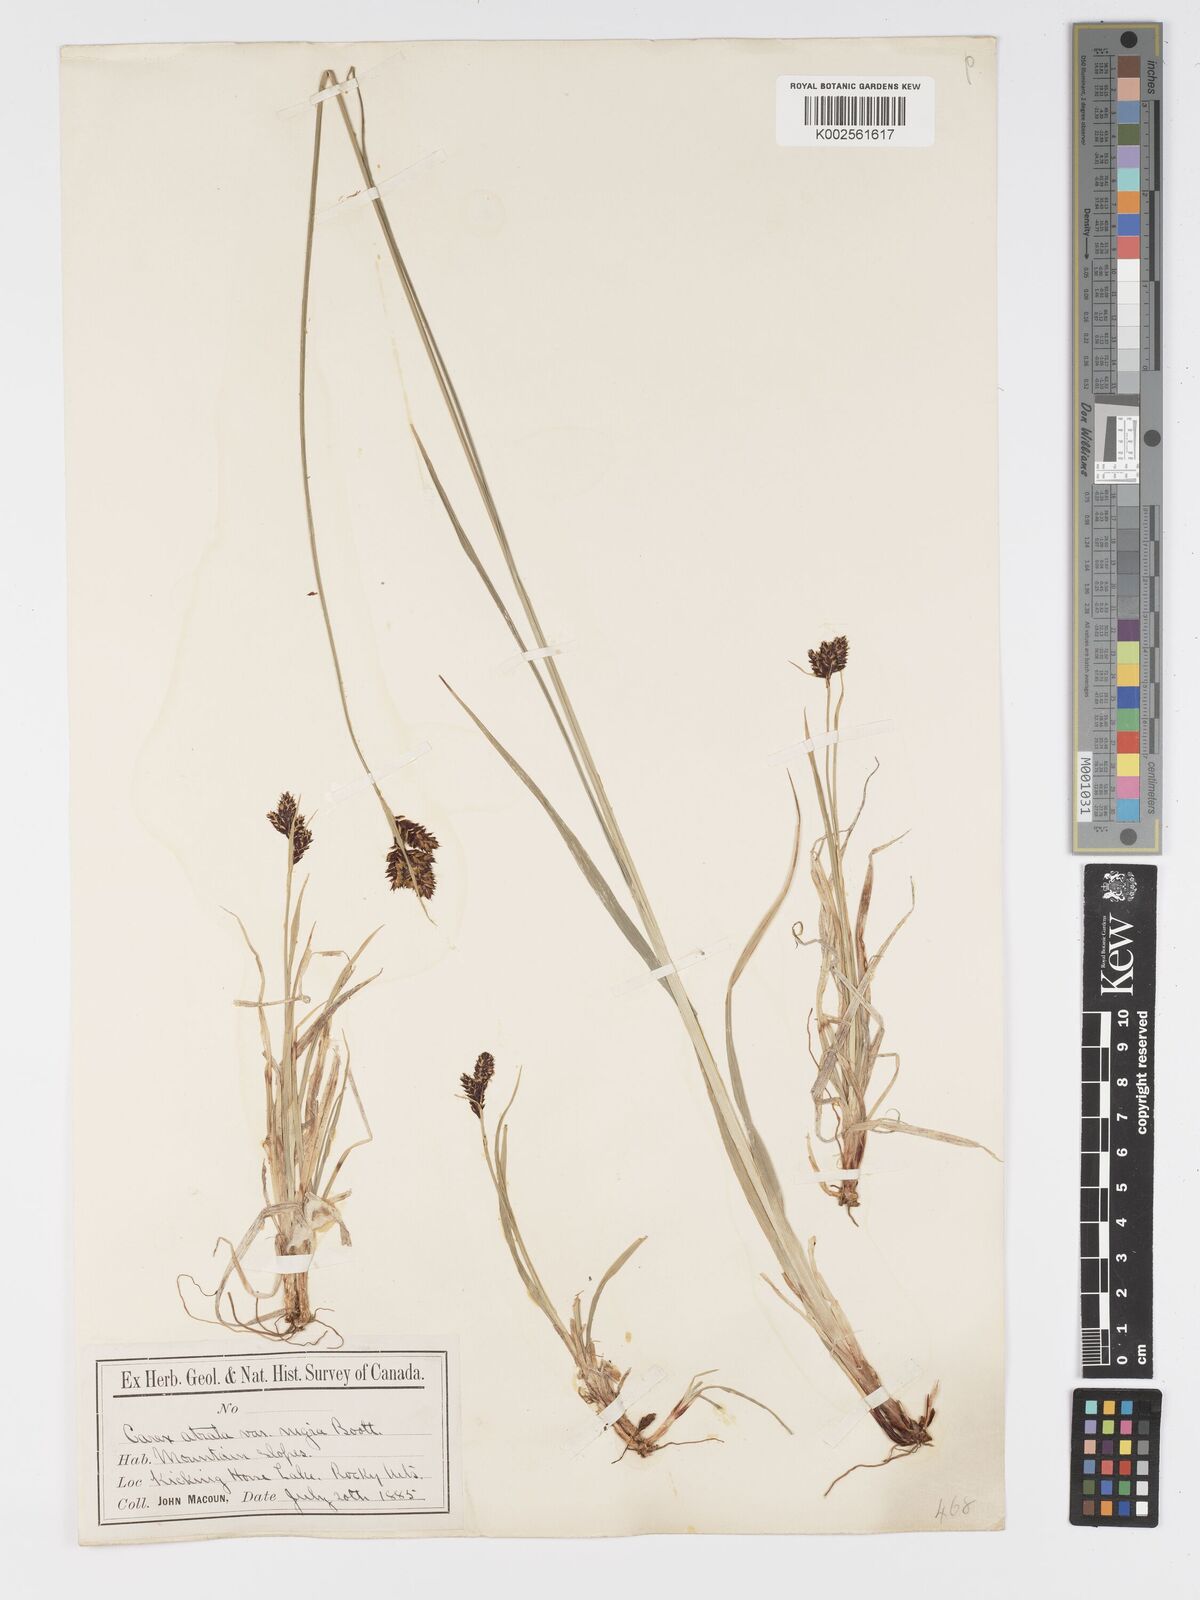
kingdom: Plantae
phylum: Tracheophyta
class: Liliopsida
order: Poales
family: Cyperaceae
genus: Carex
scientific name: Carex atrosquama
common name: Black-scale sedge
